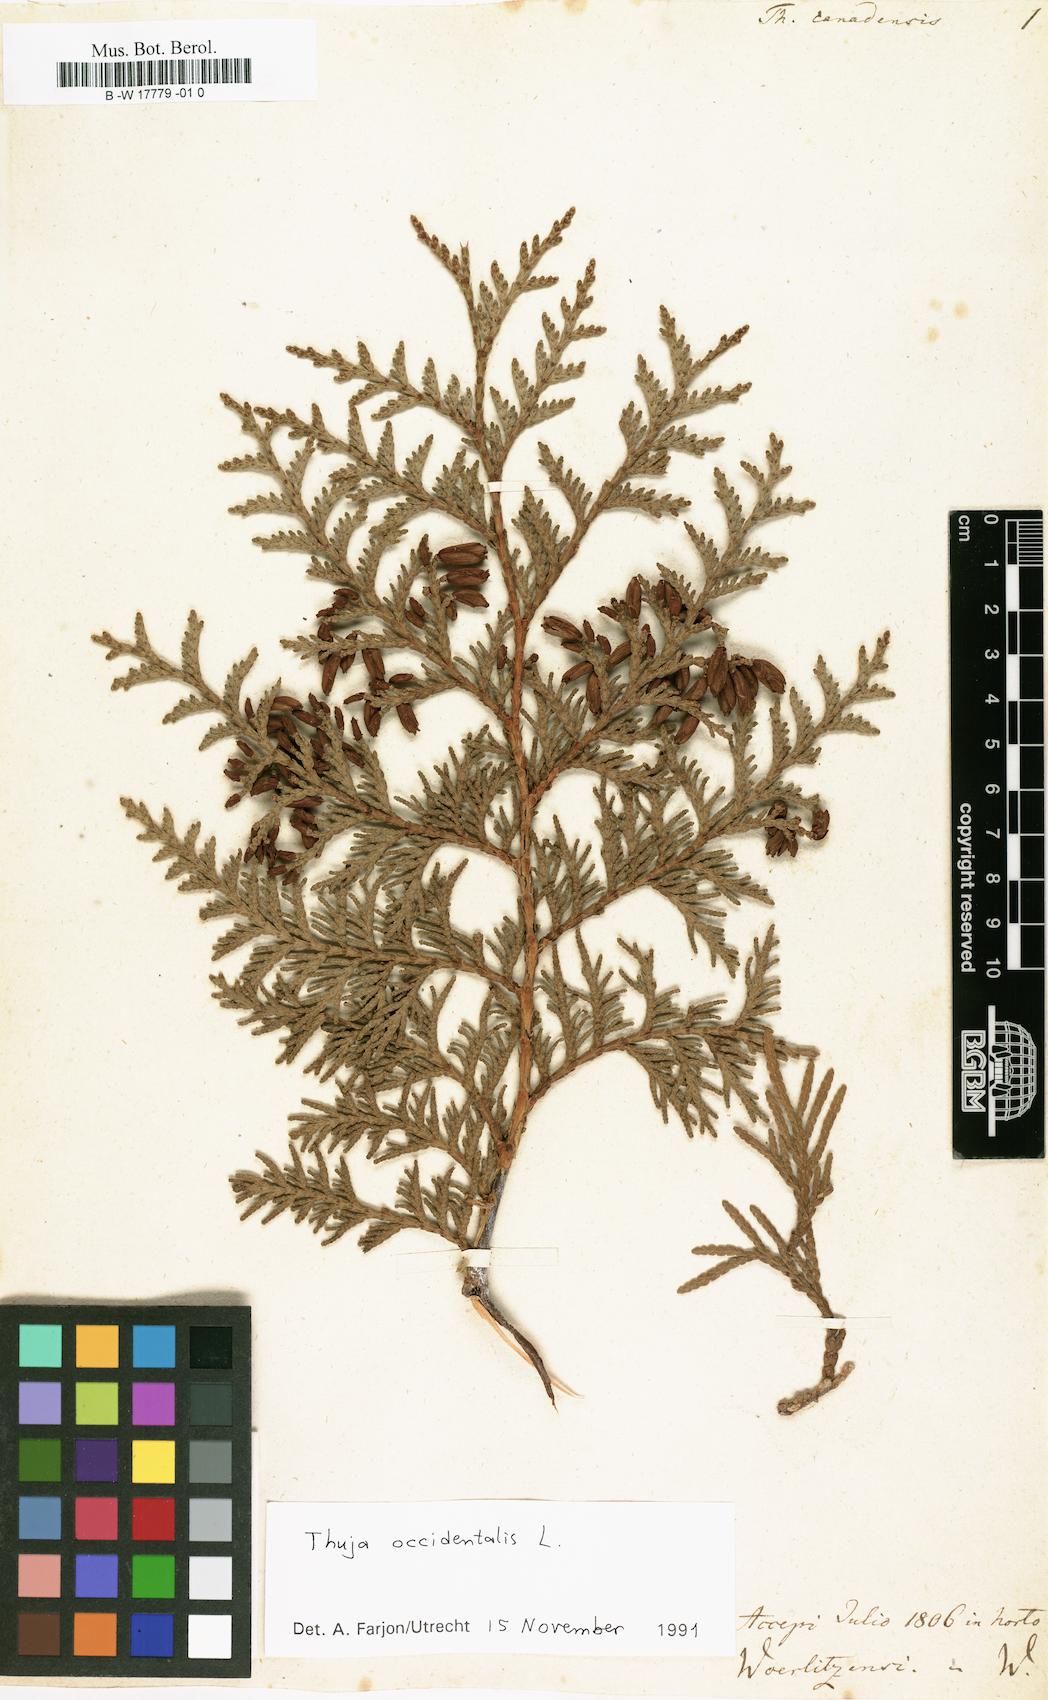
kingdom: Plantae
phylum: Tracheophyta
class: Pinopsida
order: Pinales
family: Cupressaceae
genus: Thuja
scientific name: Thuja occidentalis
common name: Northern white-cedar
